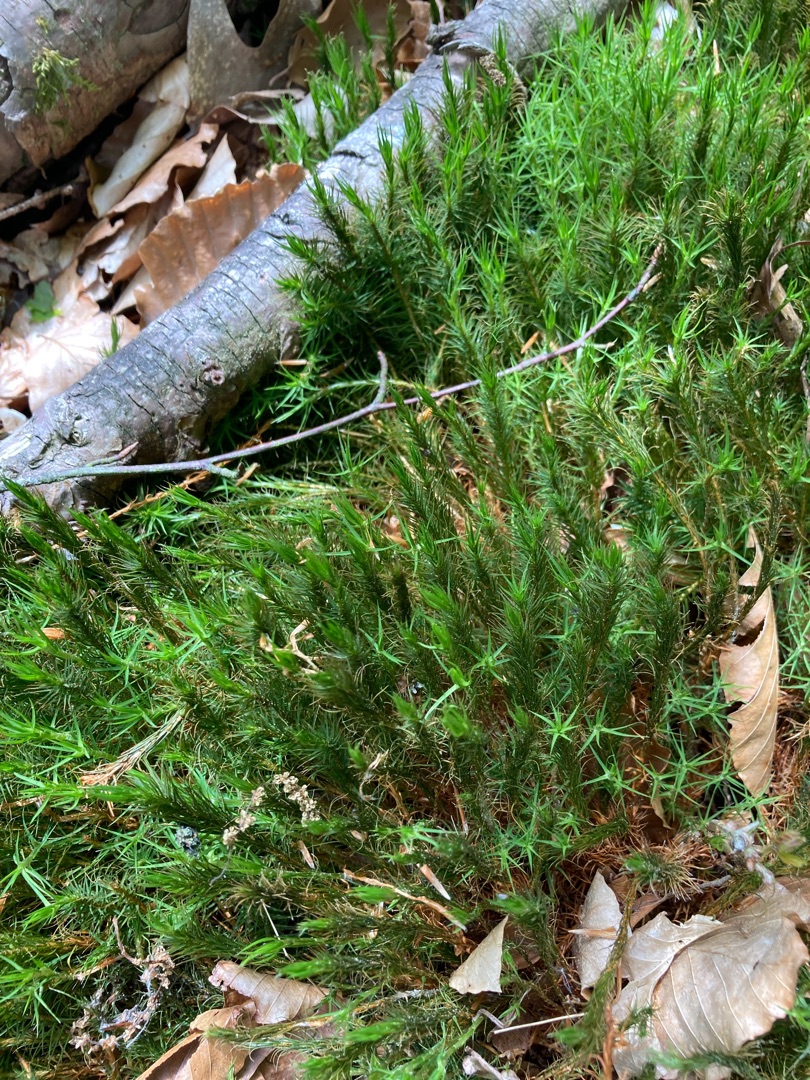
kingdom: Plantae
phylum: Bryophyta
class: Polytrichopsida
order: Polytrichales
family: Polytrichaceae
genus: Polytrichum
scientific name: Polytrichum formosum
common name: Skov-jomfruhår
